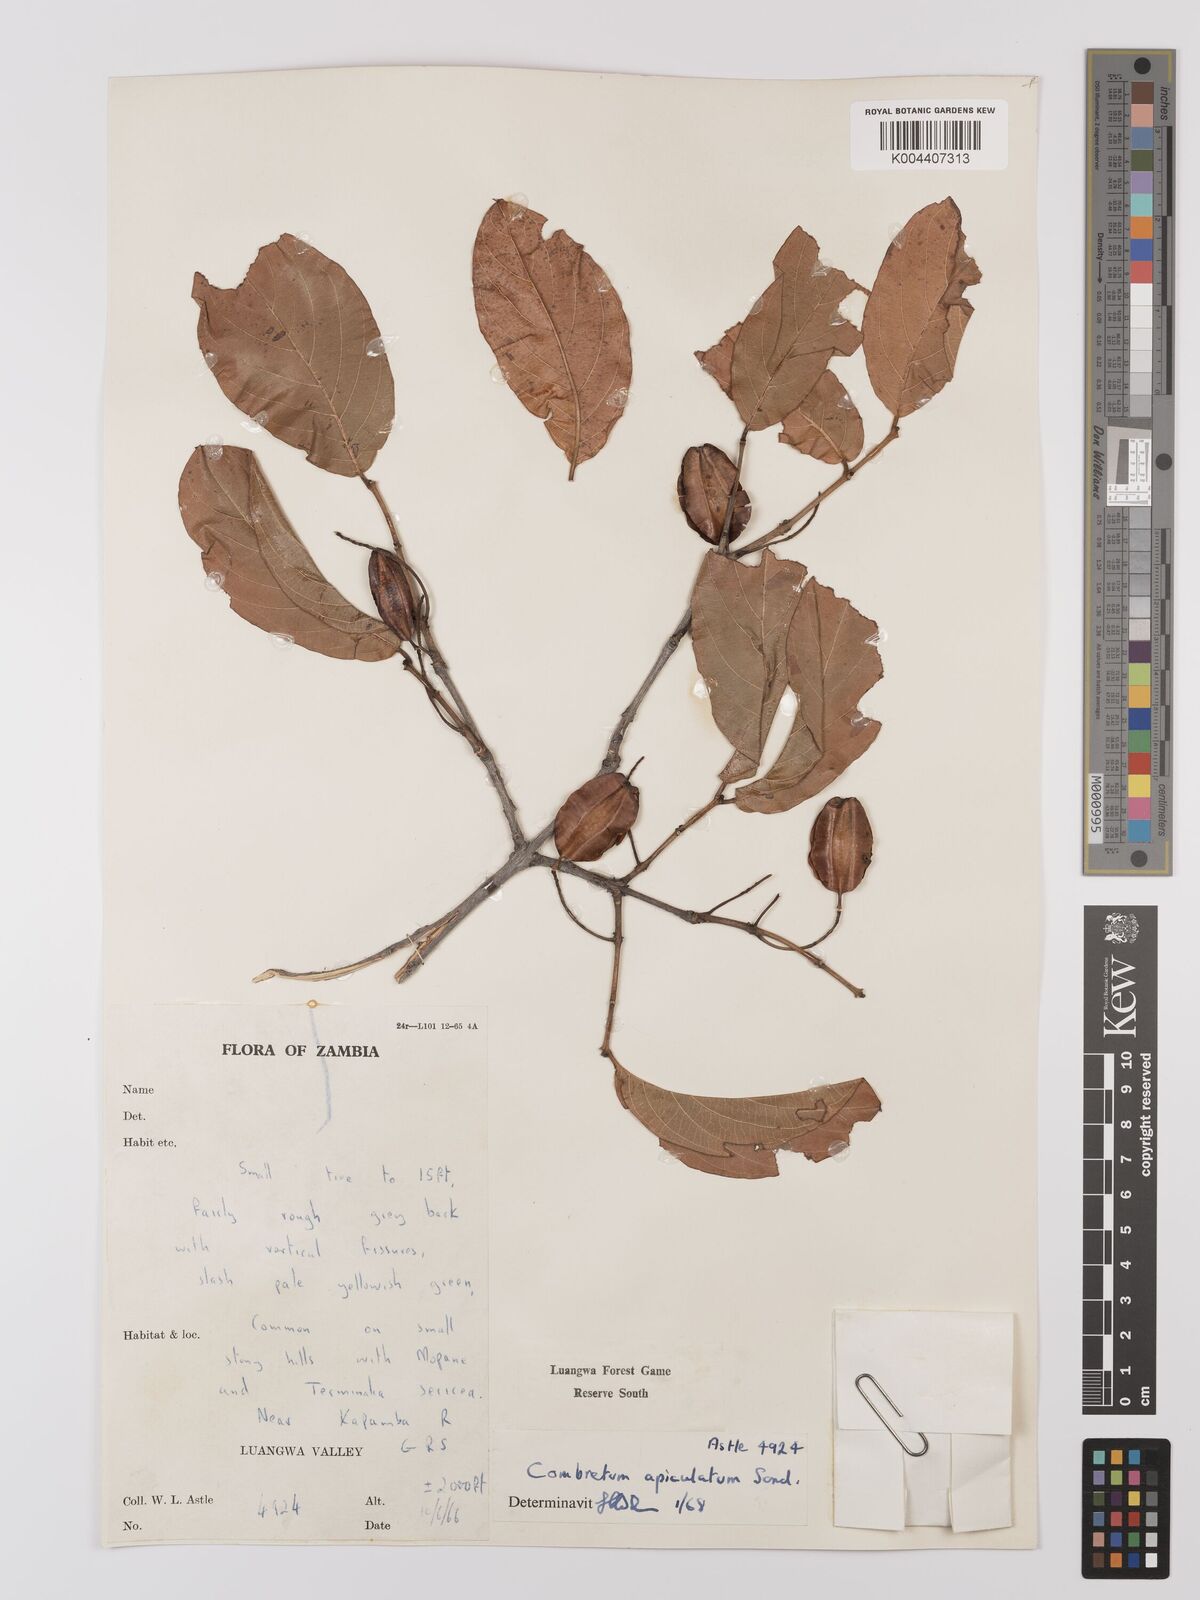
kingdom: Plantae
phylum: Tracheophyta
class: Magnoliopsida
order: Myrtales
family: Combretaceae
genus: Combretum
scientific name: Combretum apiculatum
